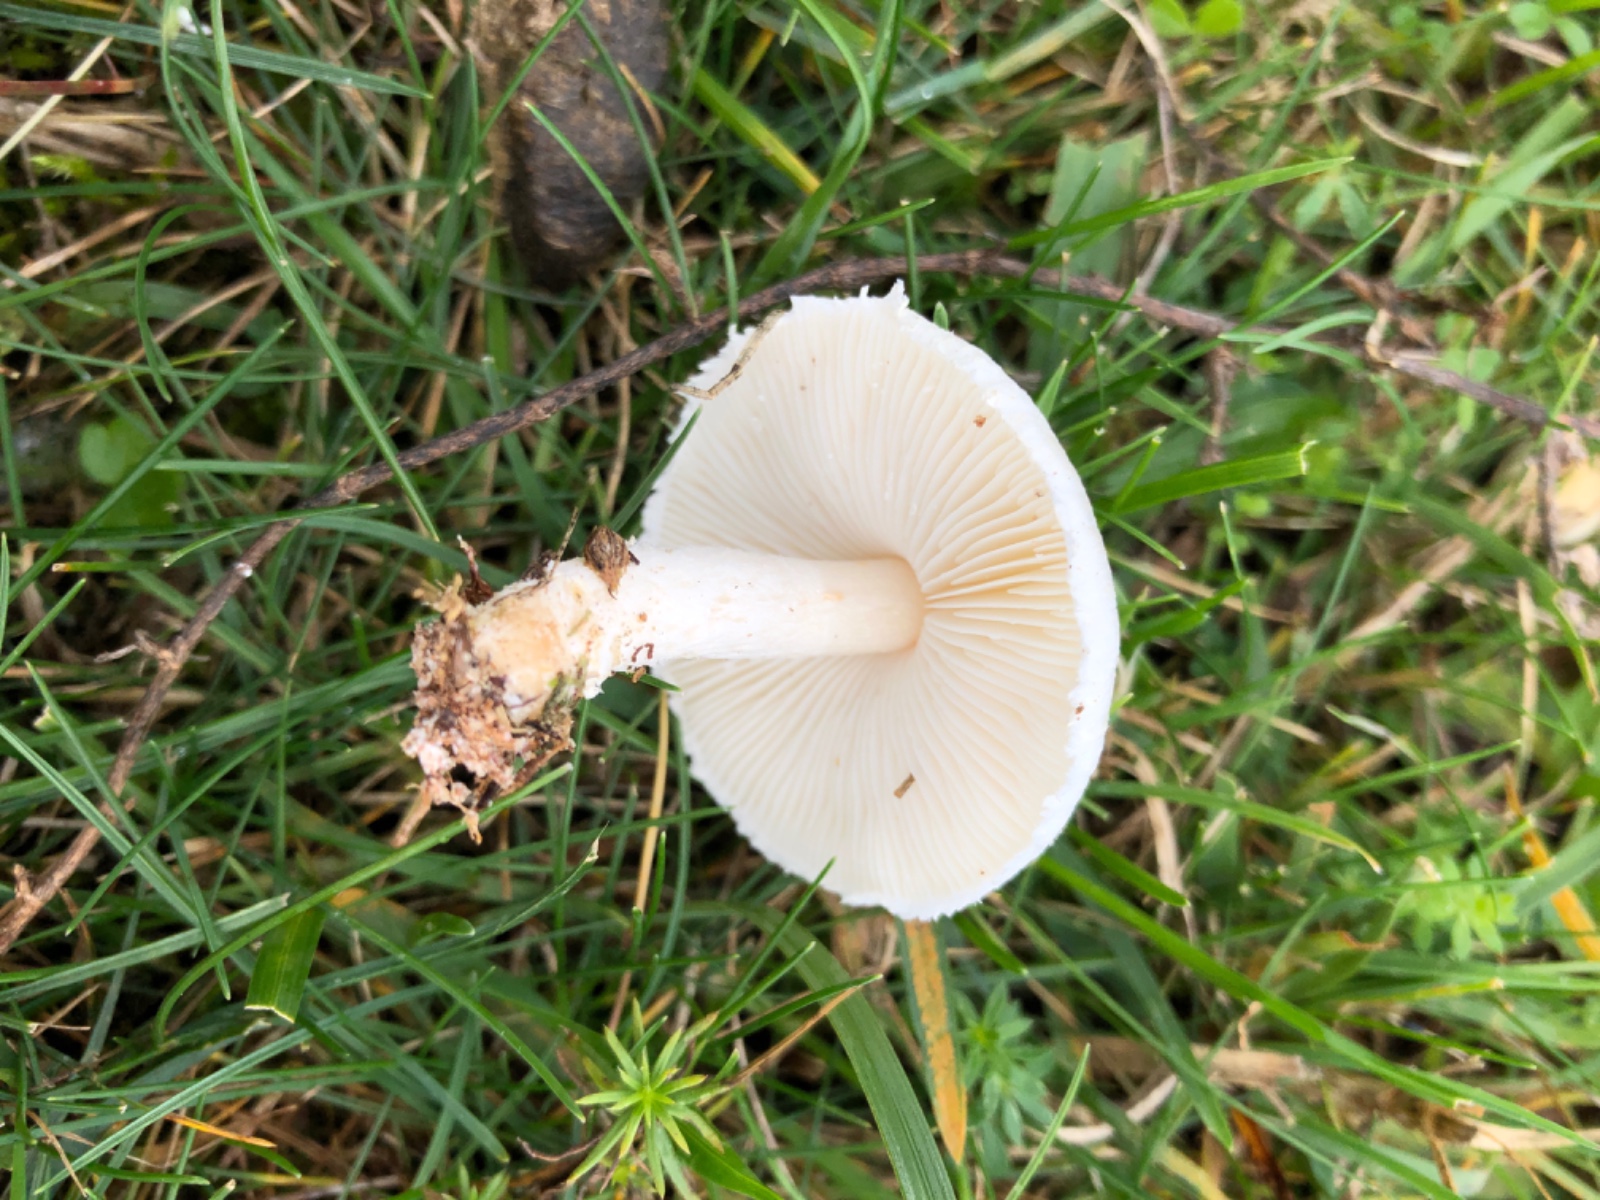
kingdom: Fungi
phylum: Basidiomycota
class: Agaricomycetes
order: Agaricales
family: Agaricaceae
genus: Lepiota
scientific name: Lepiota erminea
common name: hvid parasolhat
